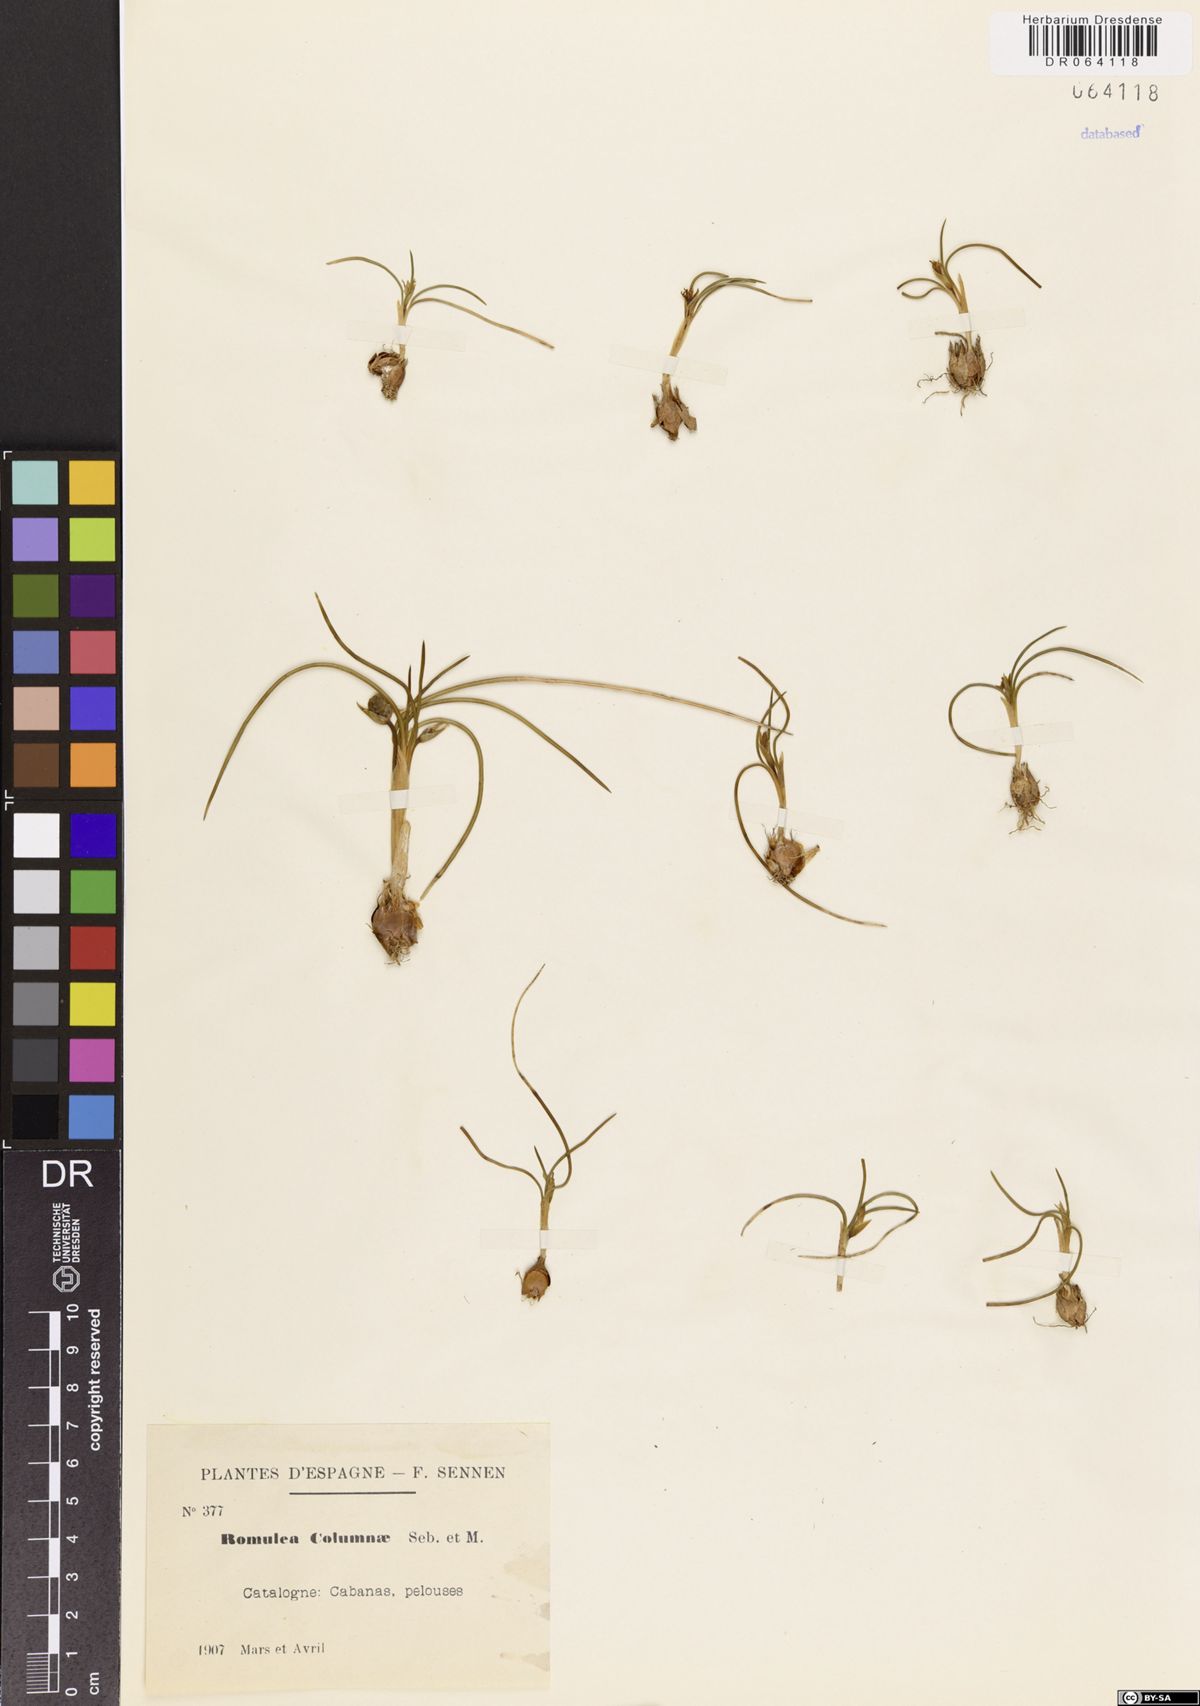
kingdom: Plantae
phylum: Tracheophyta
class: Liliopsida
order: Asparagales
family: Iridaceae
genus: Romulea
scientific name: Romulea columnae
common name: Sand-crocus
